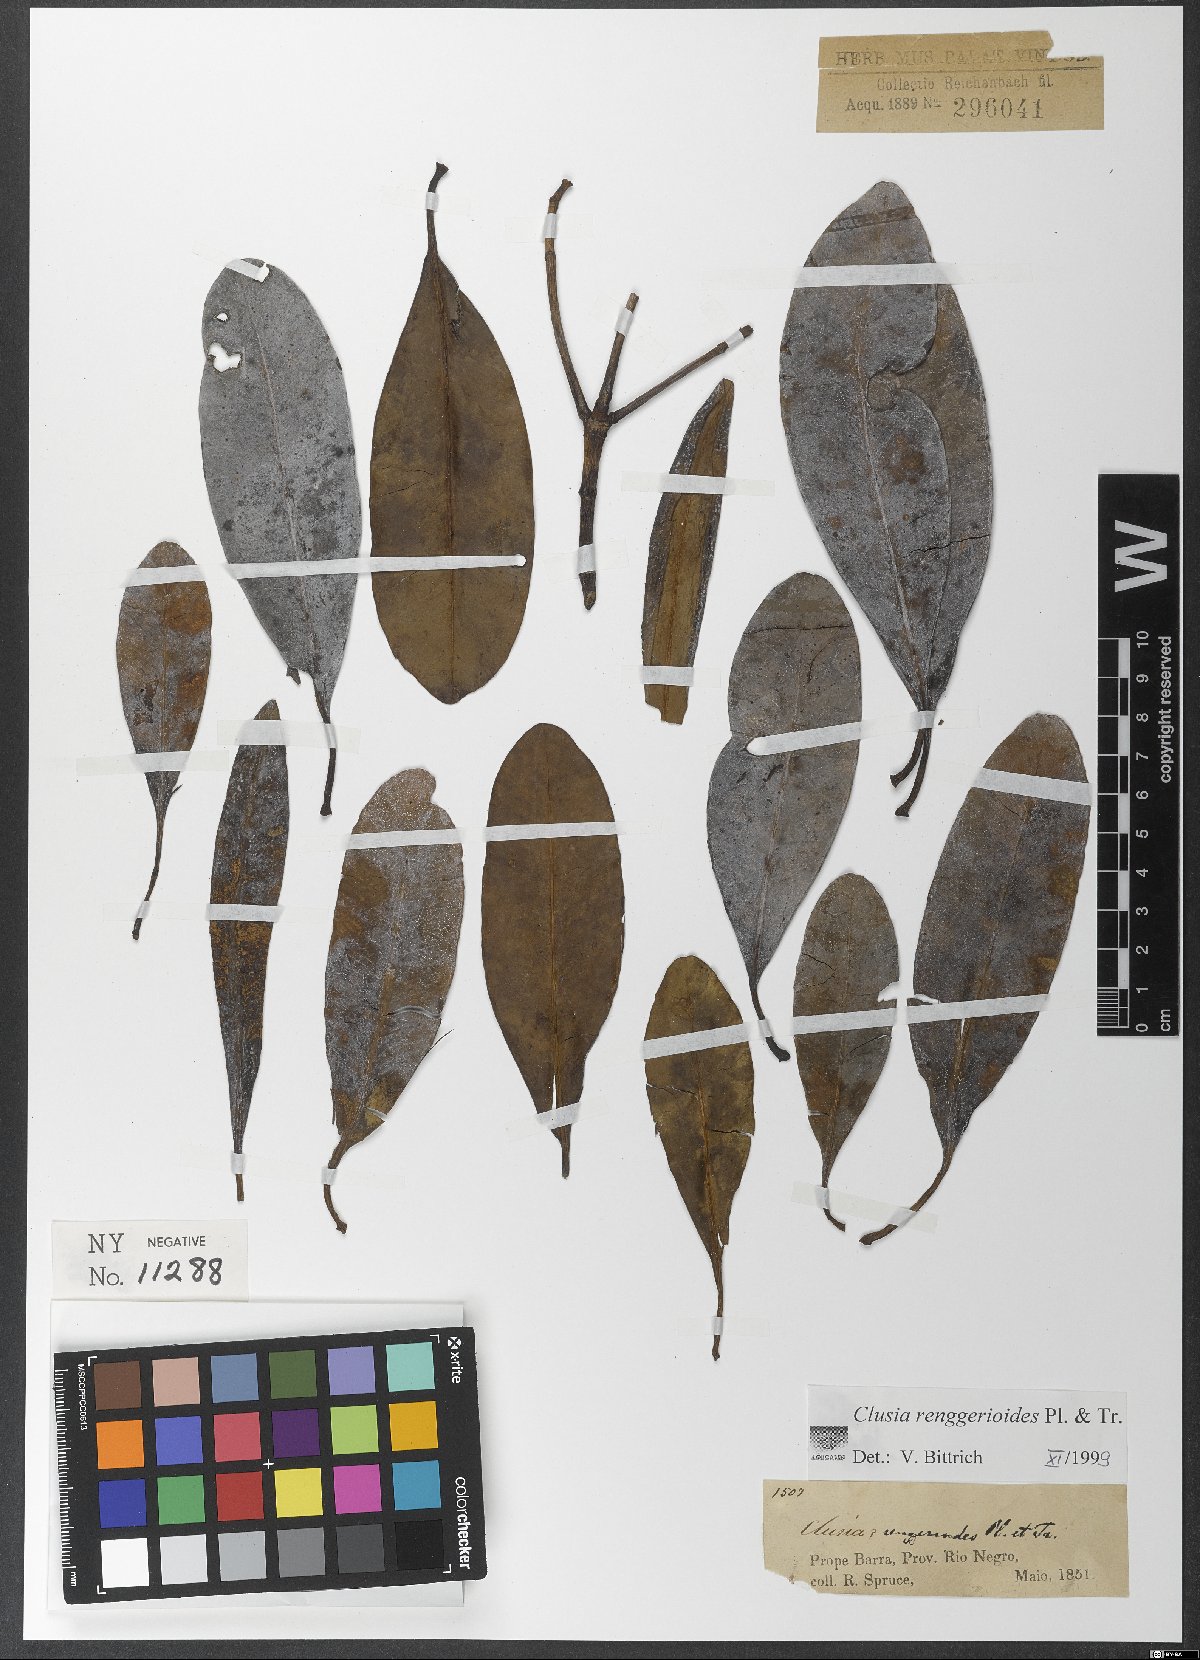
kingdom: Plantae
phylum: Tracheophyta
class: Magnoliopsida
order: Malpighiales
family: Clusiaceae
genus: Clusia
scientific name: Clusia renggerioides
